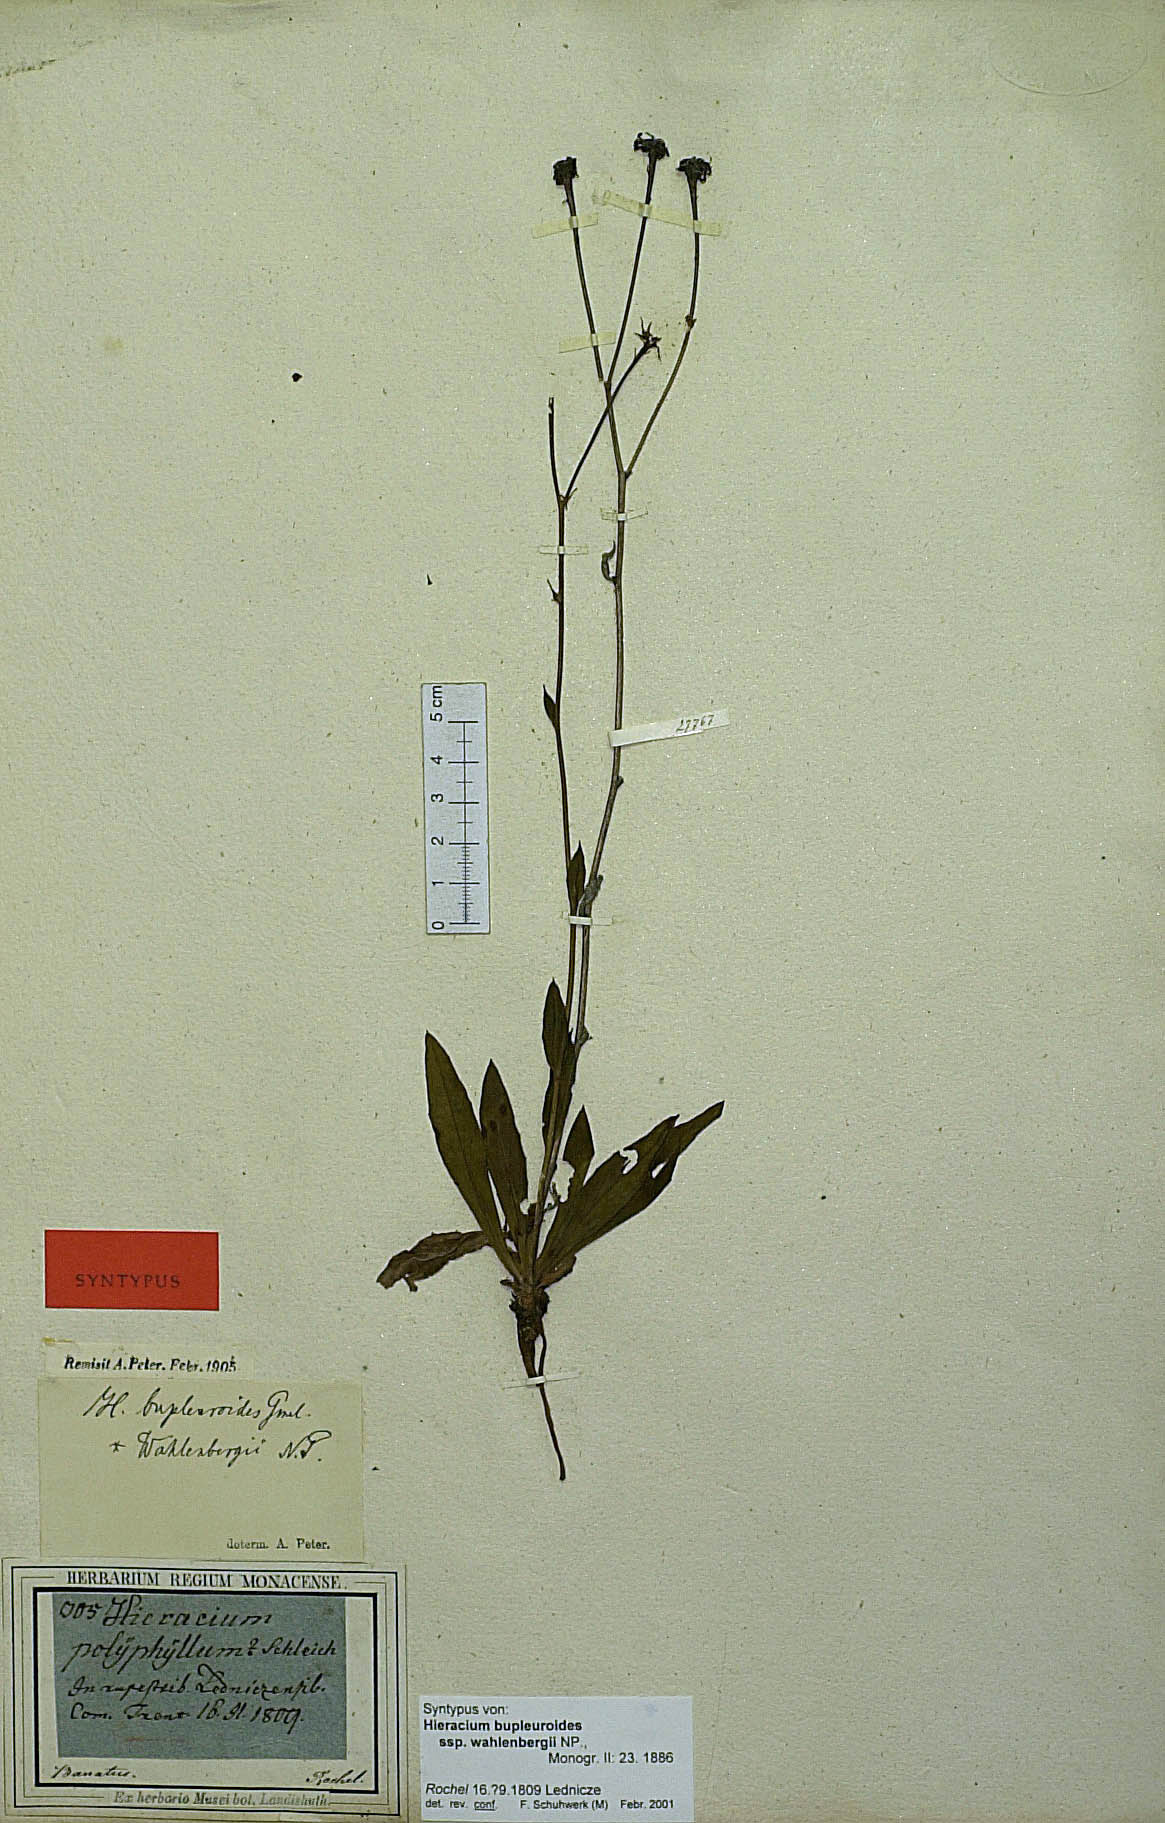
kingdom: Plantae
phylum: Tracheophyta
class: Magnoliopsida
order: Asterales
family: Asteraceae
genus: Hieracium
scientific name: Hieracium bupleuroides
